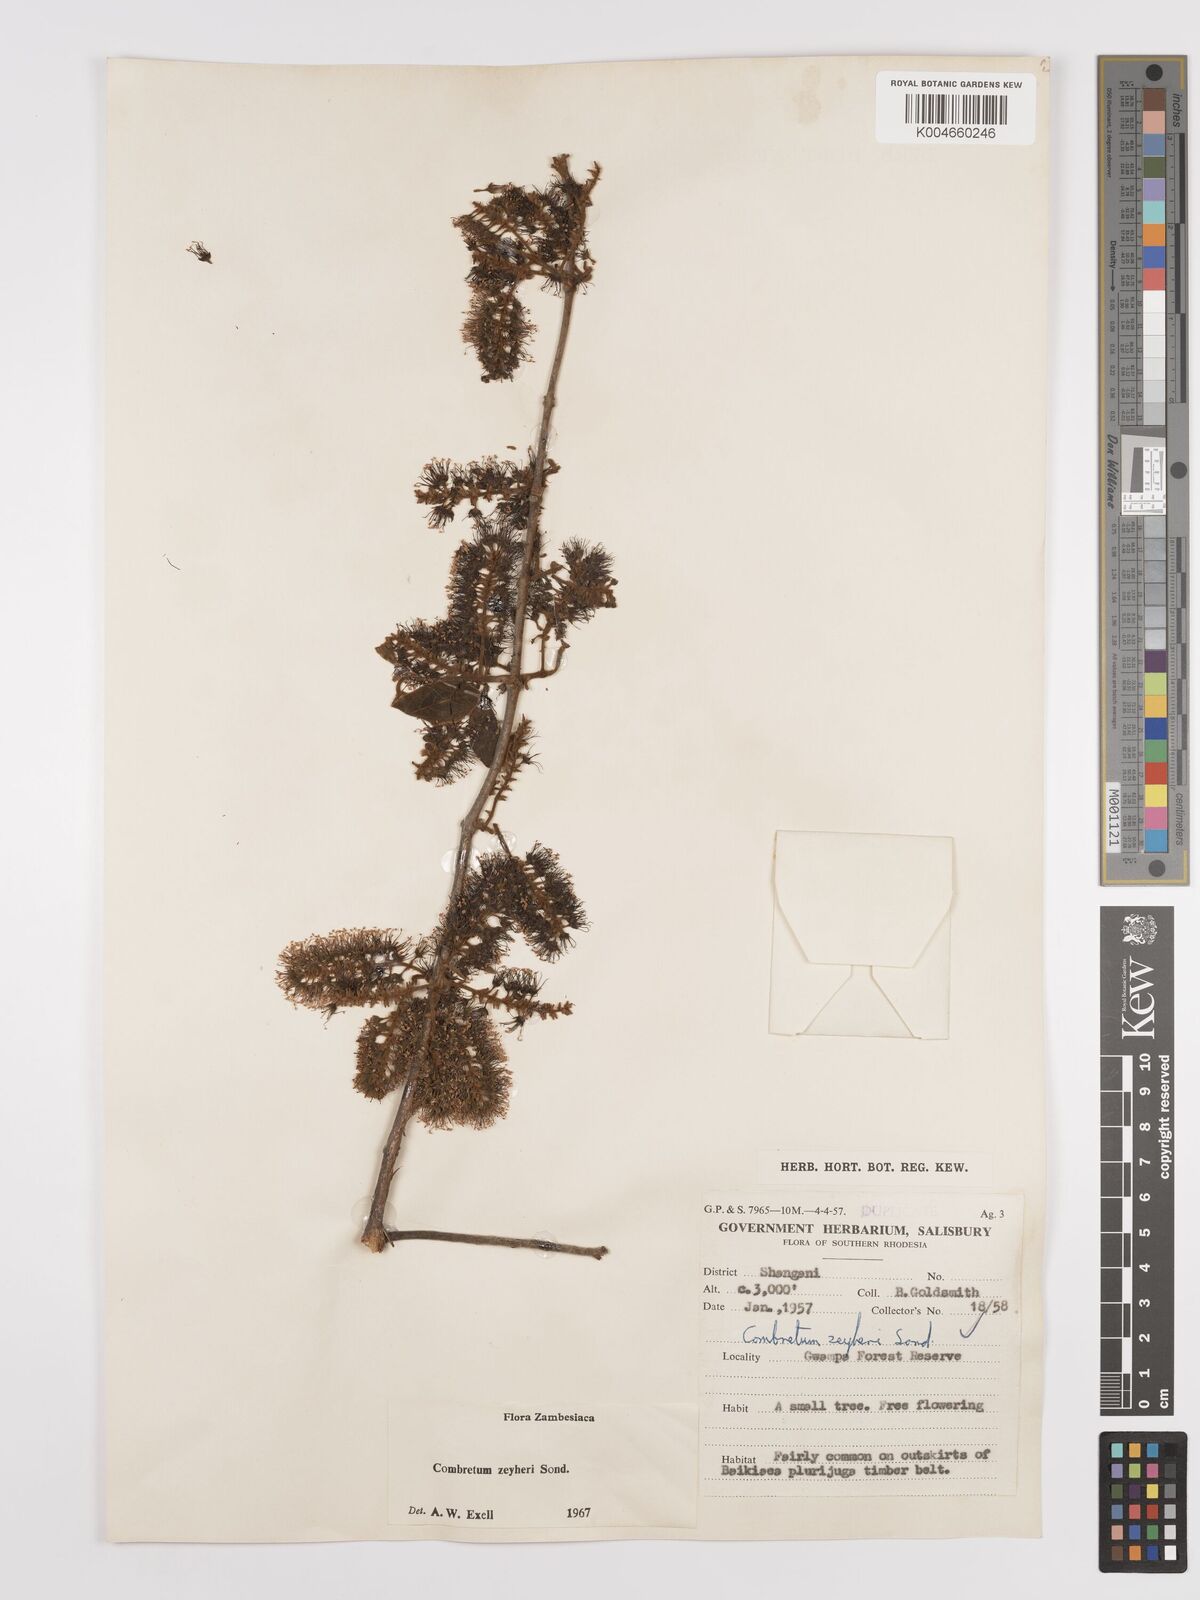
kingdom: Plantae
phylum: Tracheophyta
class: Magnoliopsida
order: Myrtales
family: Combretaceae
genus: Combretum
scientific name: Combretum zeyheri
